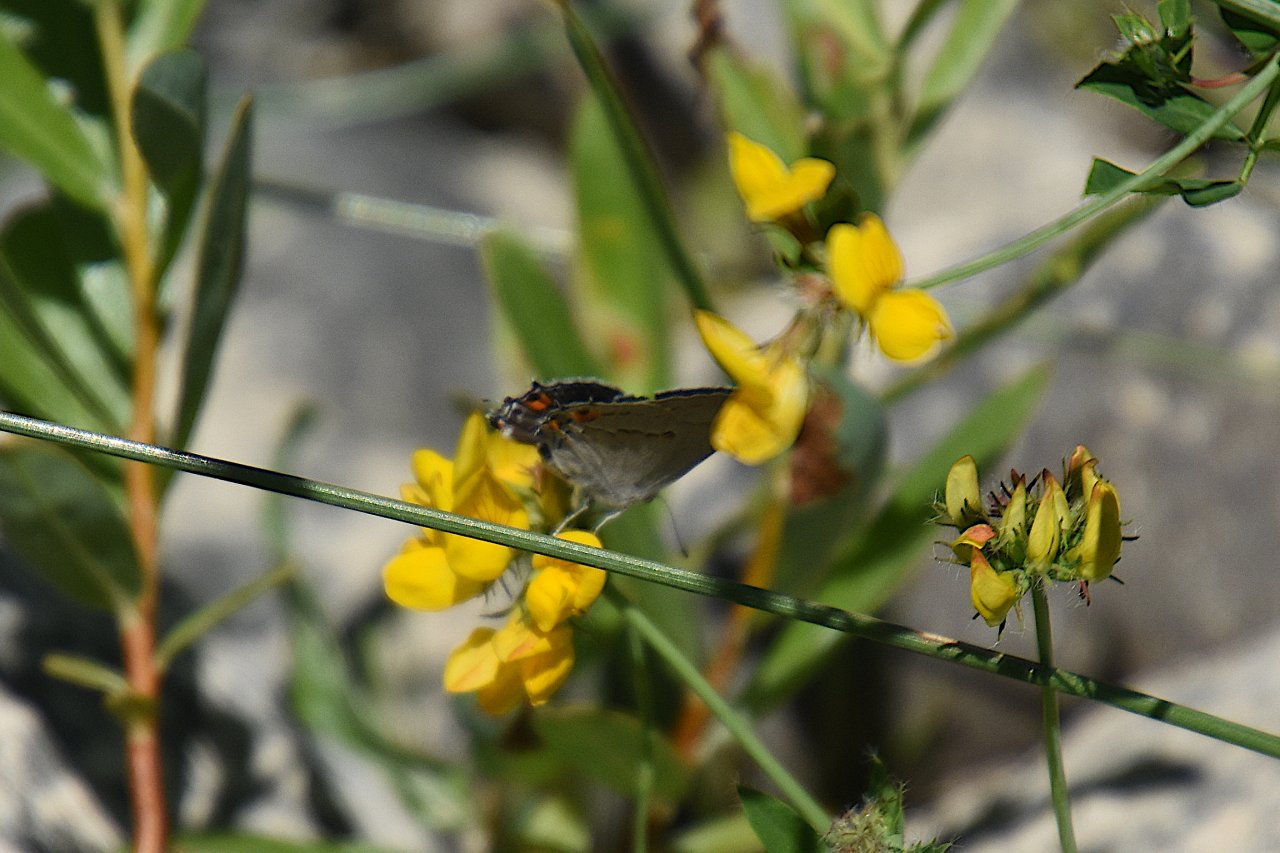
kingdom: Animalia
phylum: Arthropoda
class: Insecta
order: Lepidoptera
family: Lycaenidae
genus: Strymon
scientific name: Strymon melinus
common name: Gray Hairstreak
